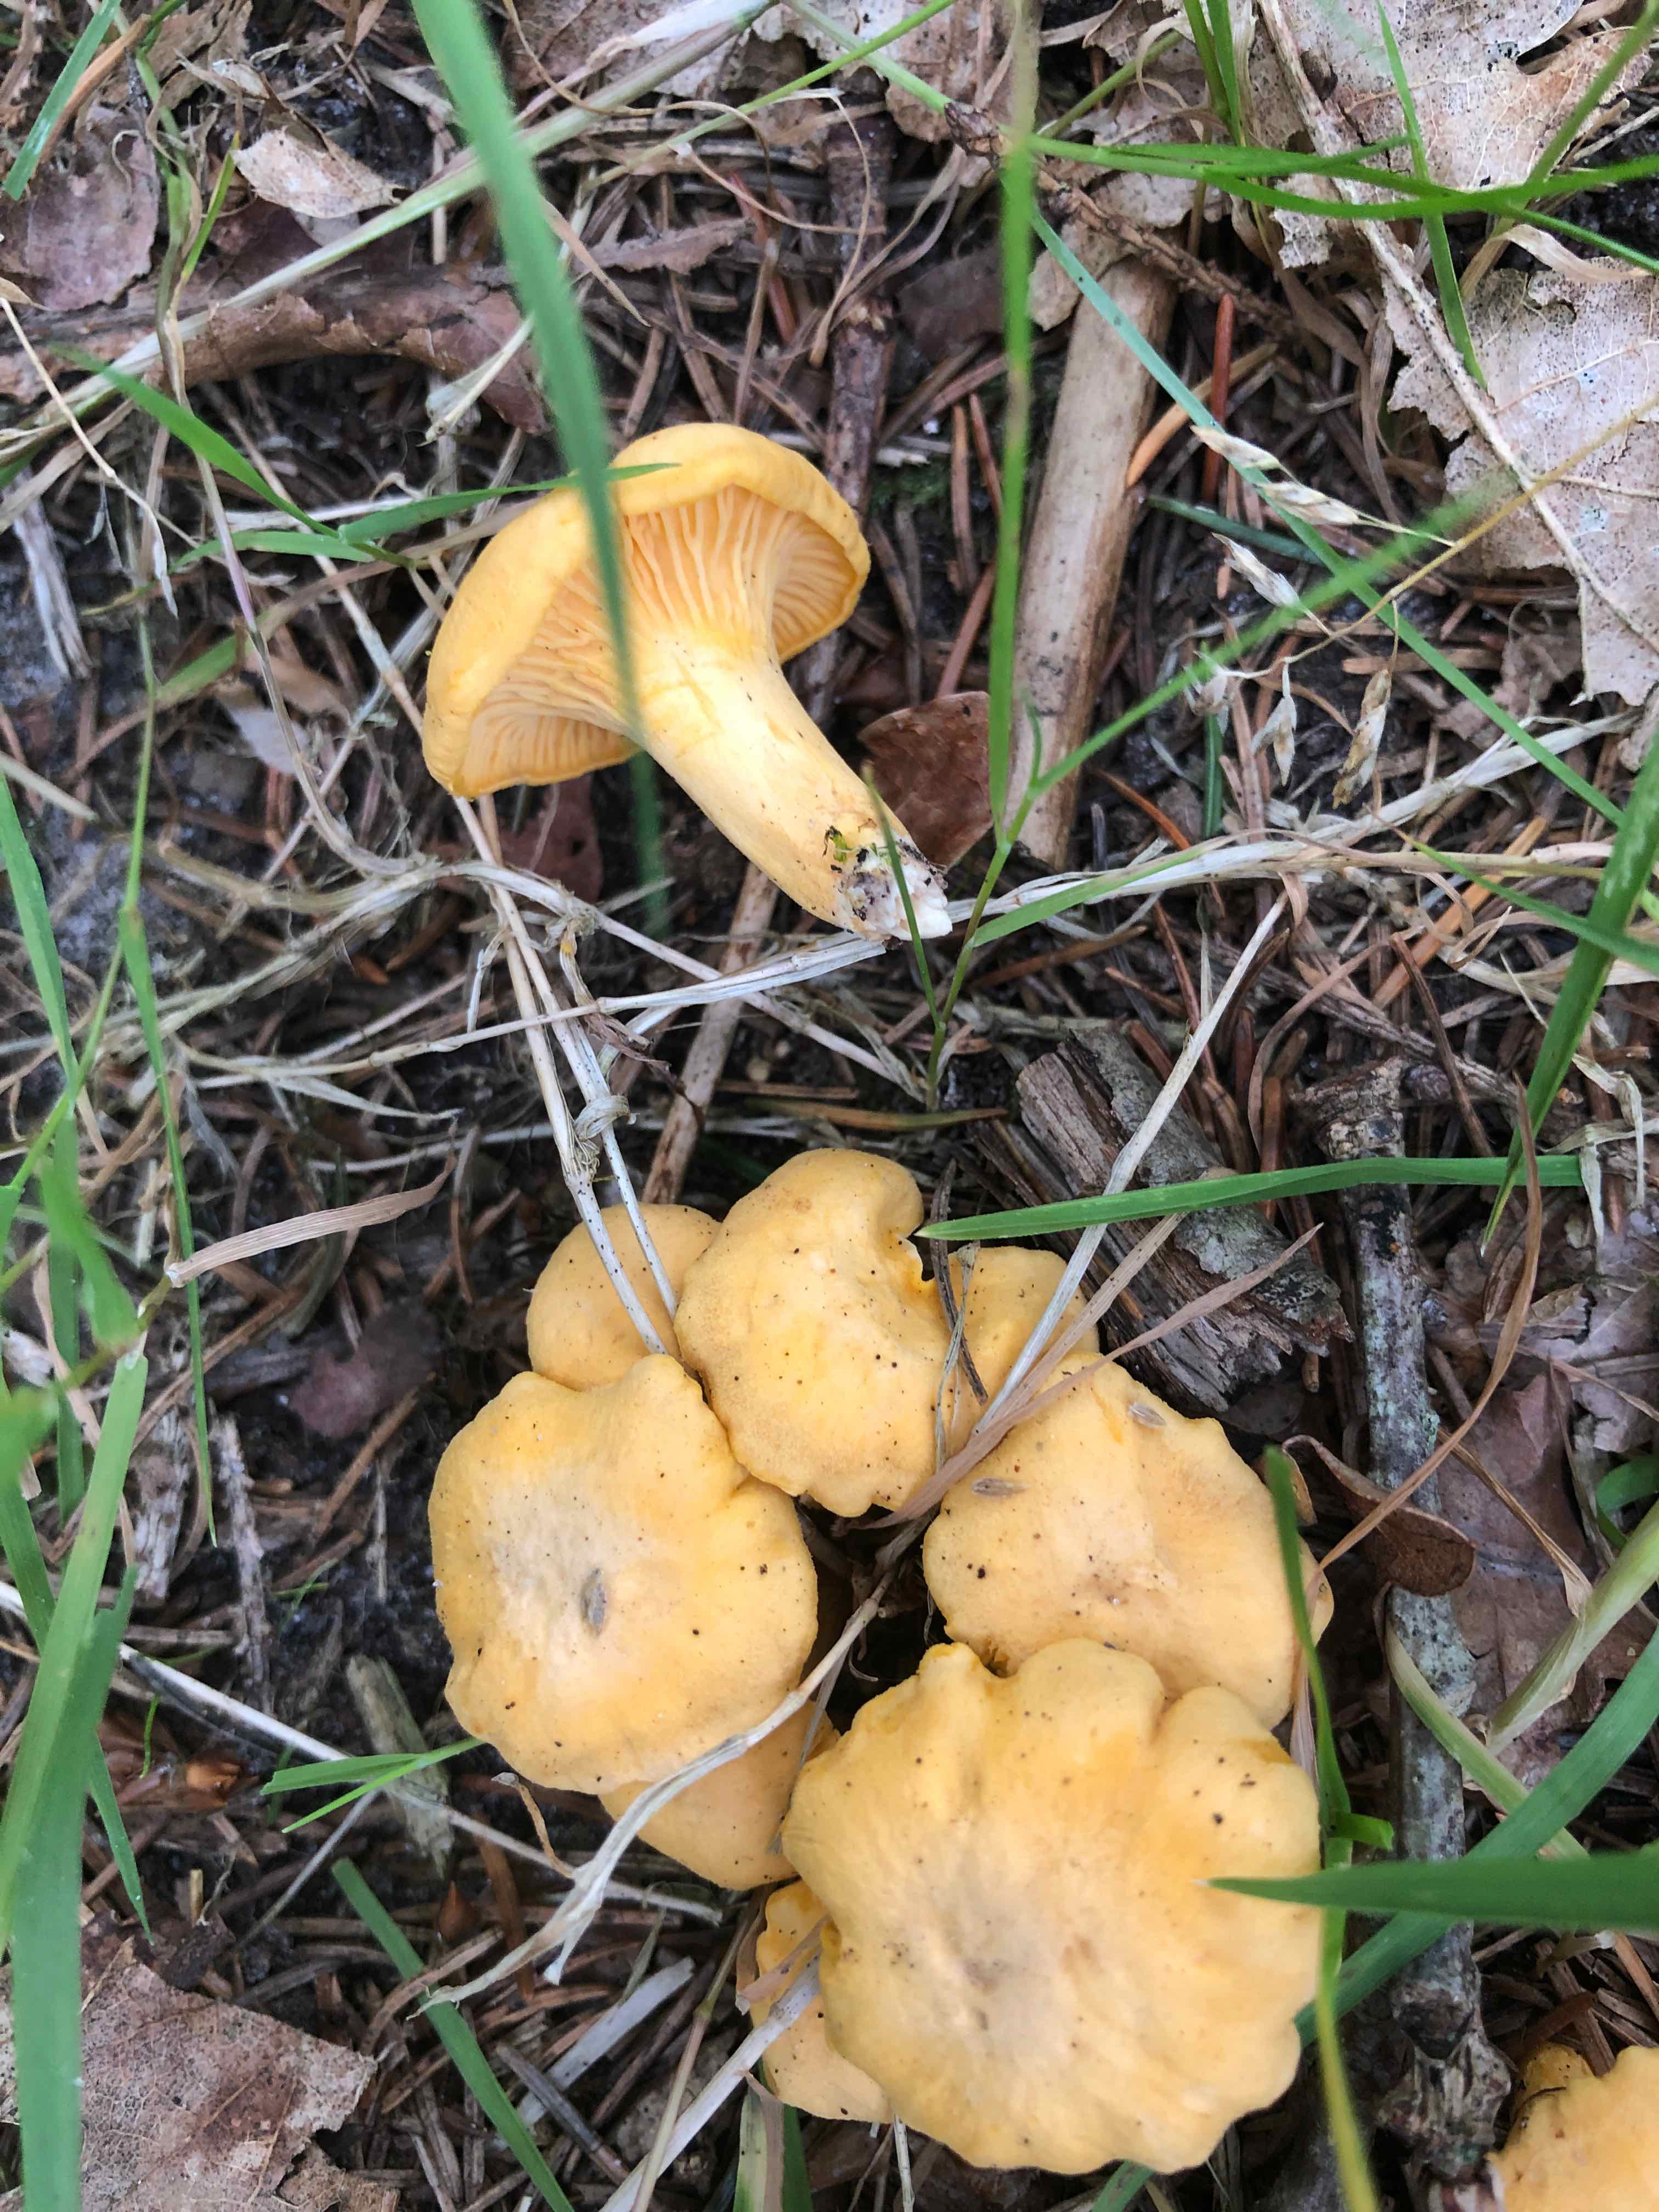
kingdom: Fungi
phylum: Basidiomycota
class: Agaricomycetes
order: Cantharellales
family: Hydnaceae
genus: Cantharellus
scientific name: Cantharellus cibarius
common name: almindelig kantarel
